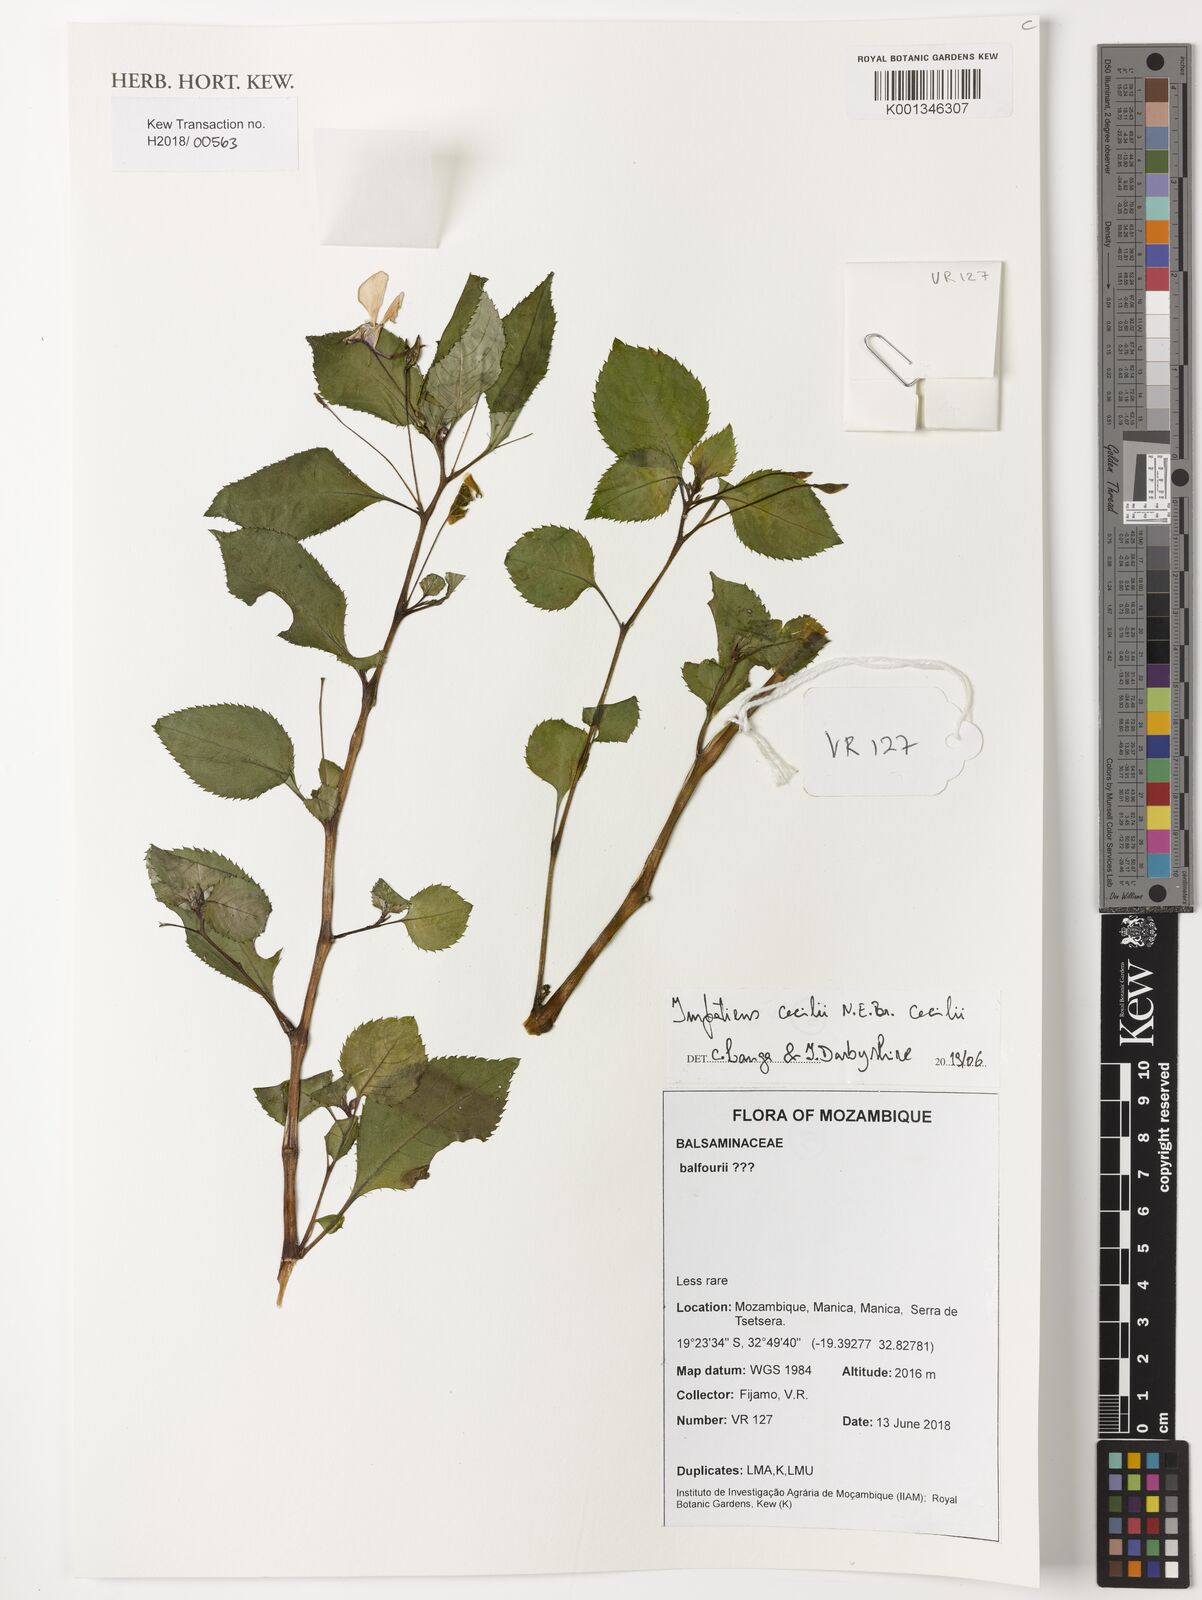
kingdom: Plantae
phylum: Tracheophyta
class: Magnoliopsida
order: Ericales
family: Balsaminaceae
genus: Impatiens
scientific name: Impatiens cecilii
